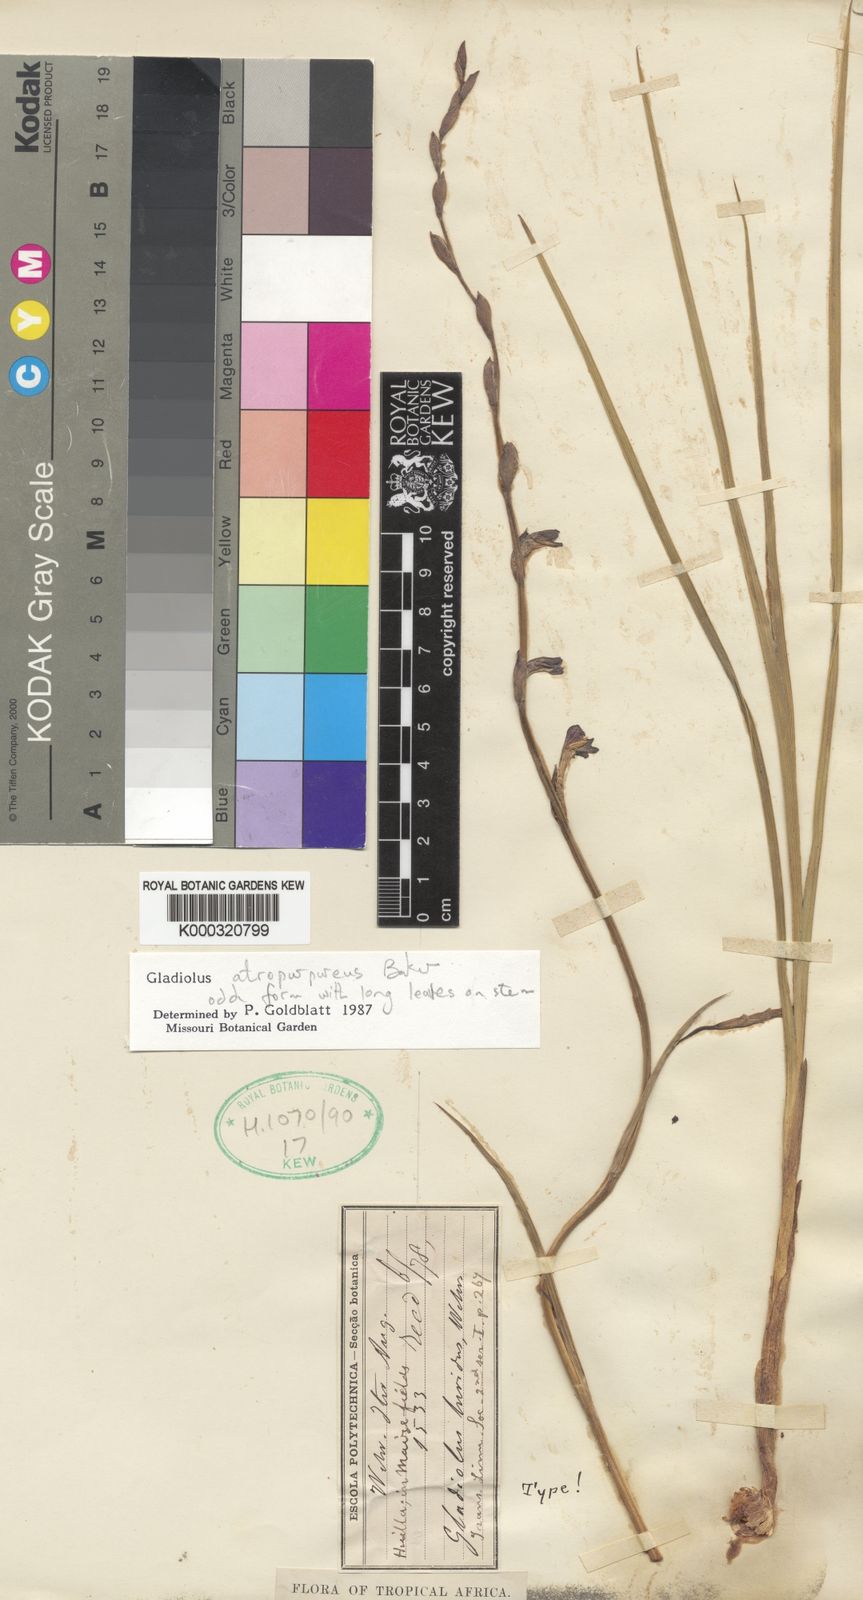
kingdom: Plantae
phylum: Tracheophyta
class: Liliopsida
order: Asparagales
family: Iridaceae
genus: Gladiolus
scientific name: Gladiolus atropurpureus
